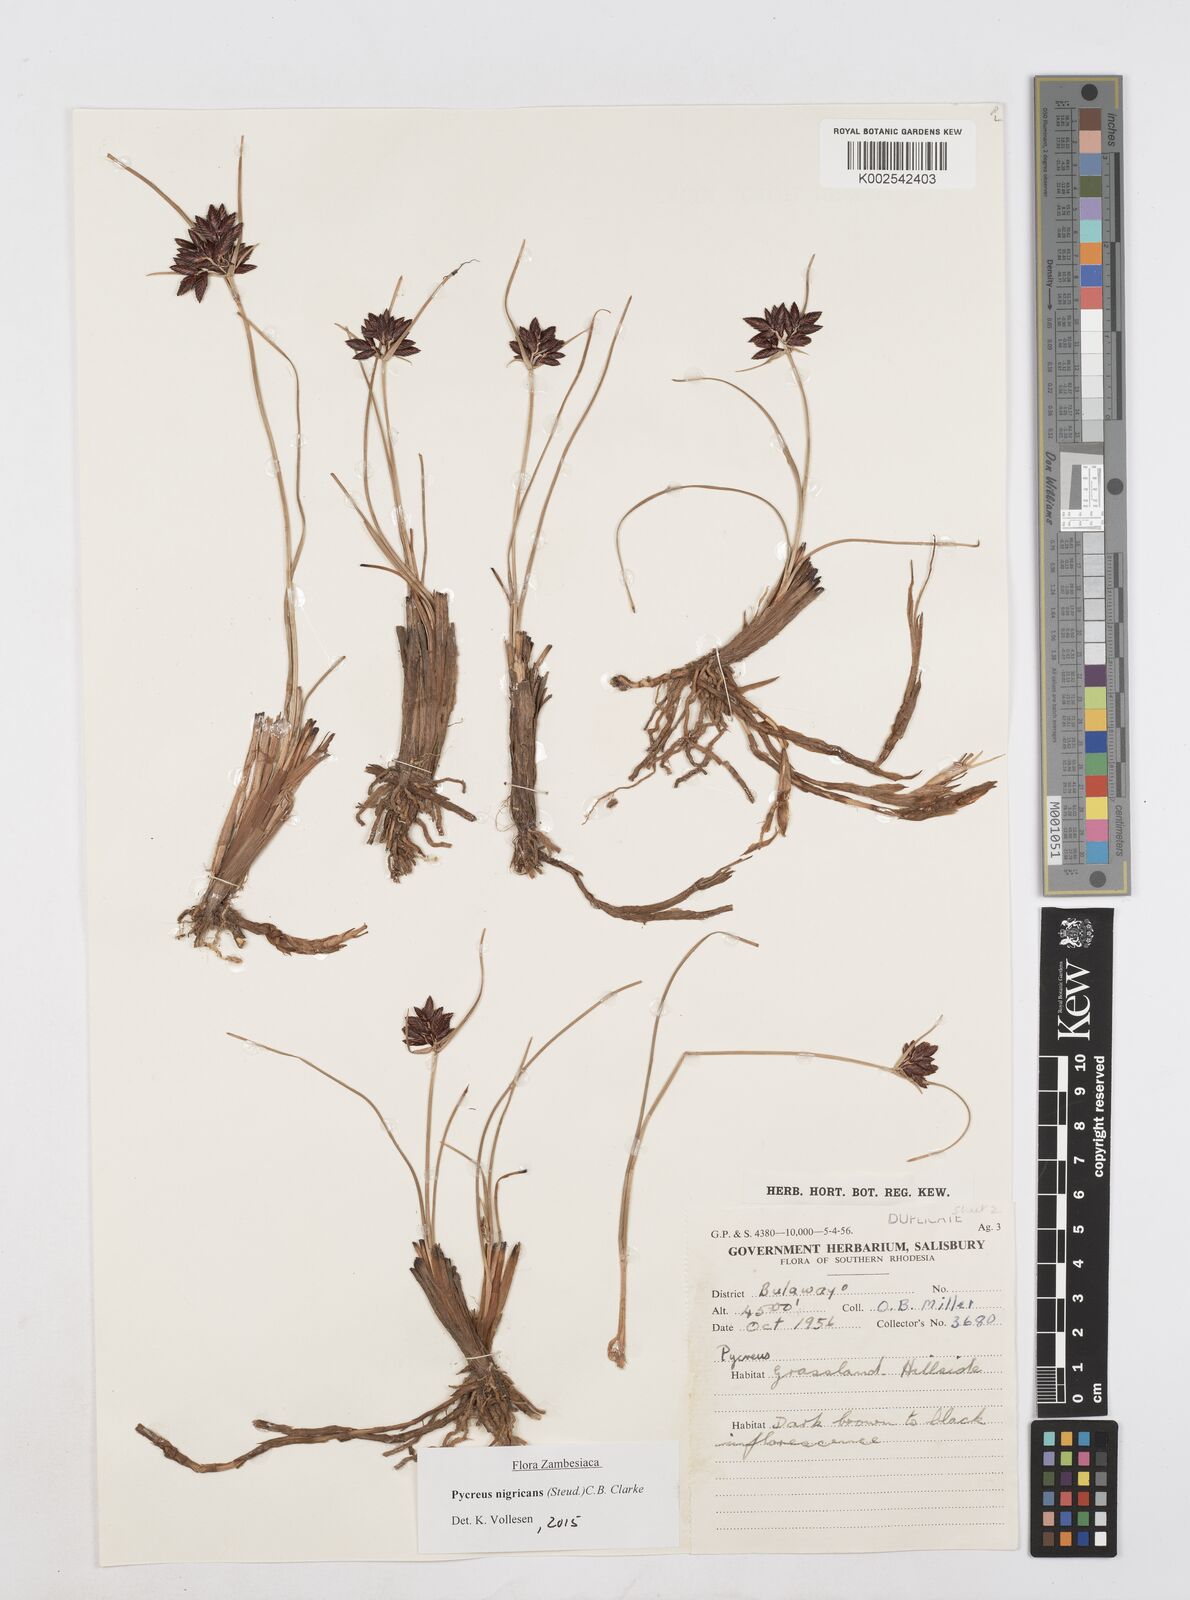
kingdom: Plantae
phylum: Tracheophyta
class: Liliopsida
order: Poales
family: Cyperaceae
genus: Cyperus
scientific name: Cyperus nigricans
